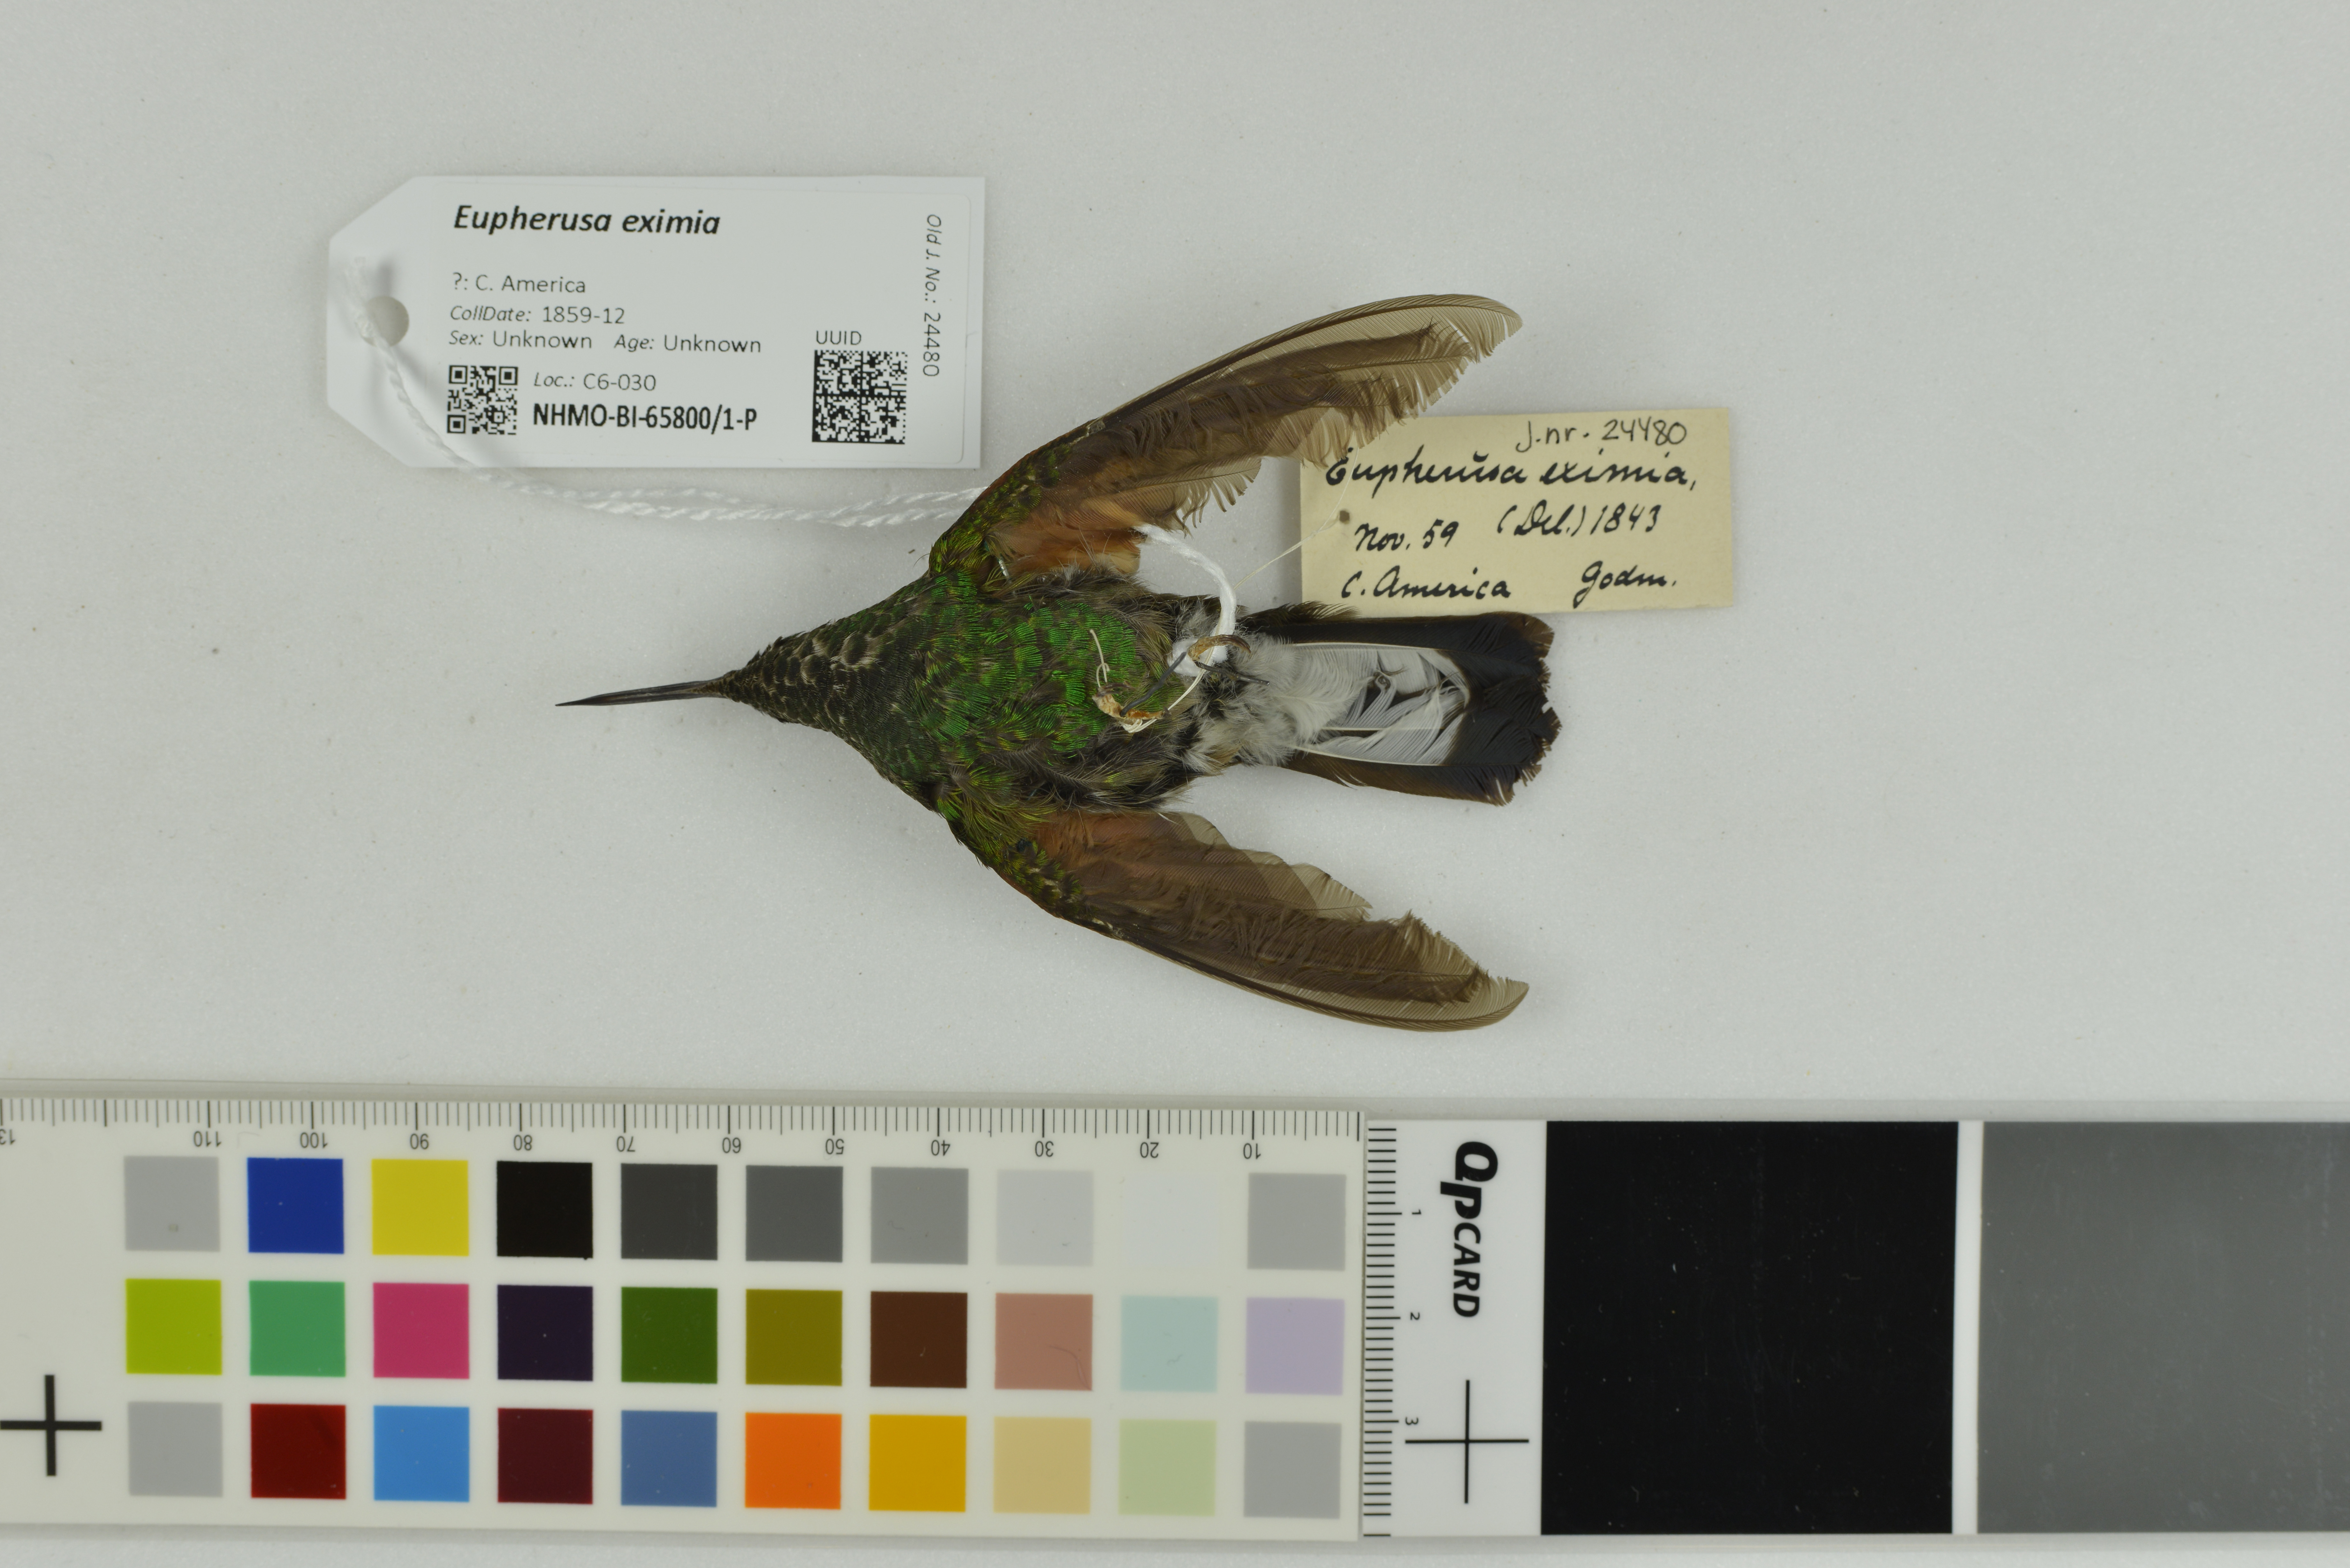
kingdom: Animalia
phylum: Chordata
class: Aves
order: Apodiformes
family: Trochilidae
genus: Eupherusa
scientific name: Eupherusa eximia
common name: Stripe-tailed hummingbird
